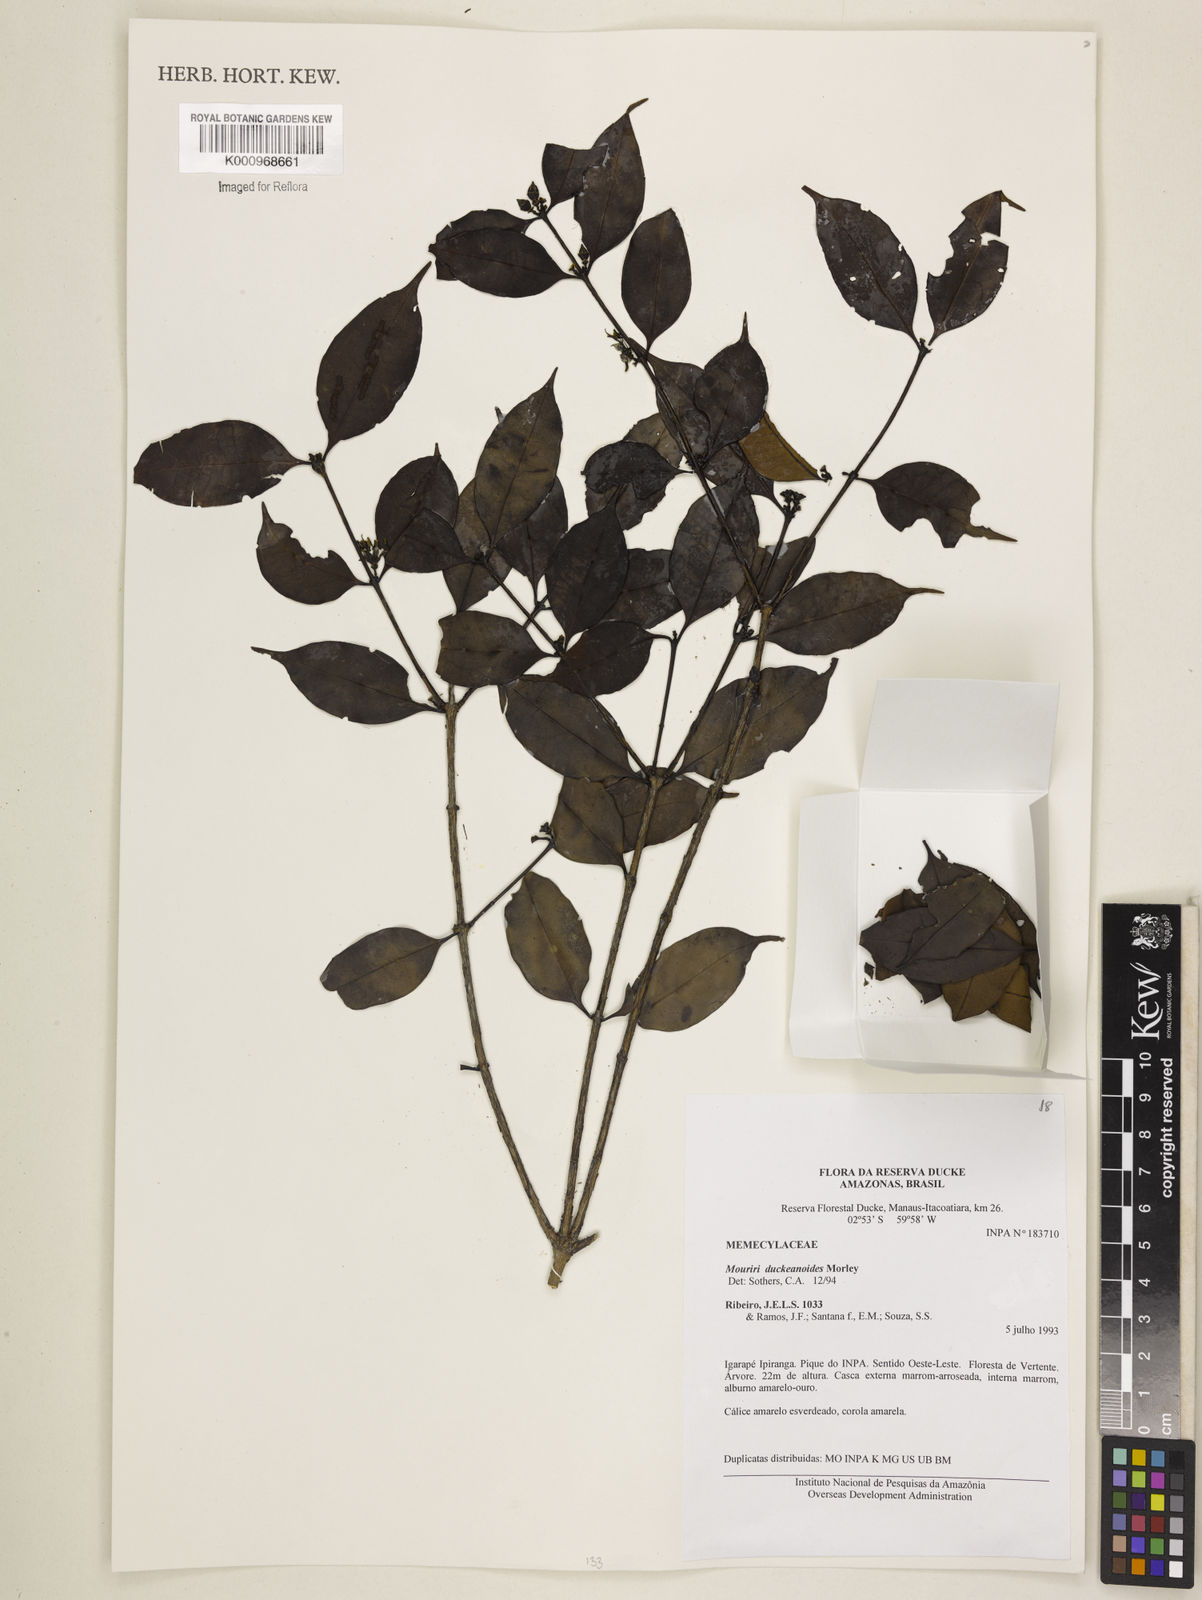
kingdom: Plantae
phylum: Tracheophyta
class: Magnoliopsida
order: Myrtales
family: Melastomataceae
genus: Mouriri
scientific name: Mouriri duckeanoides
